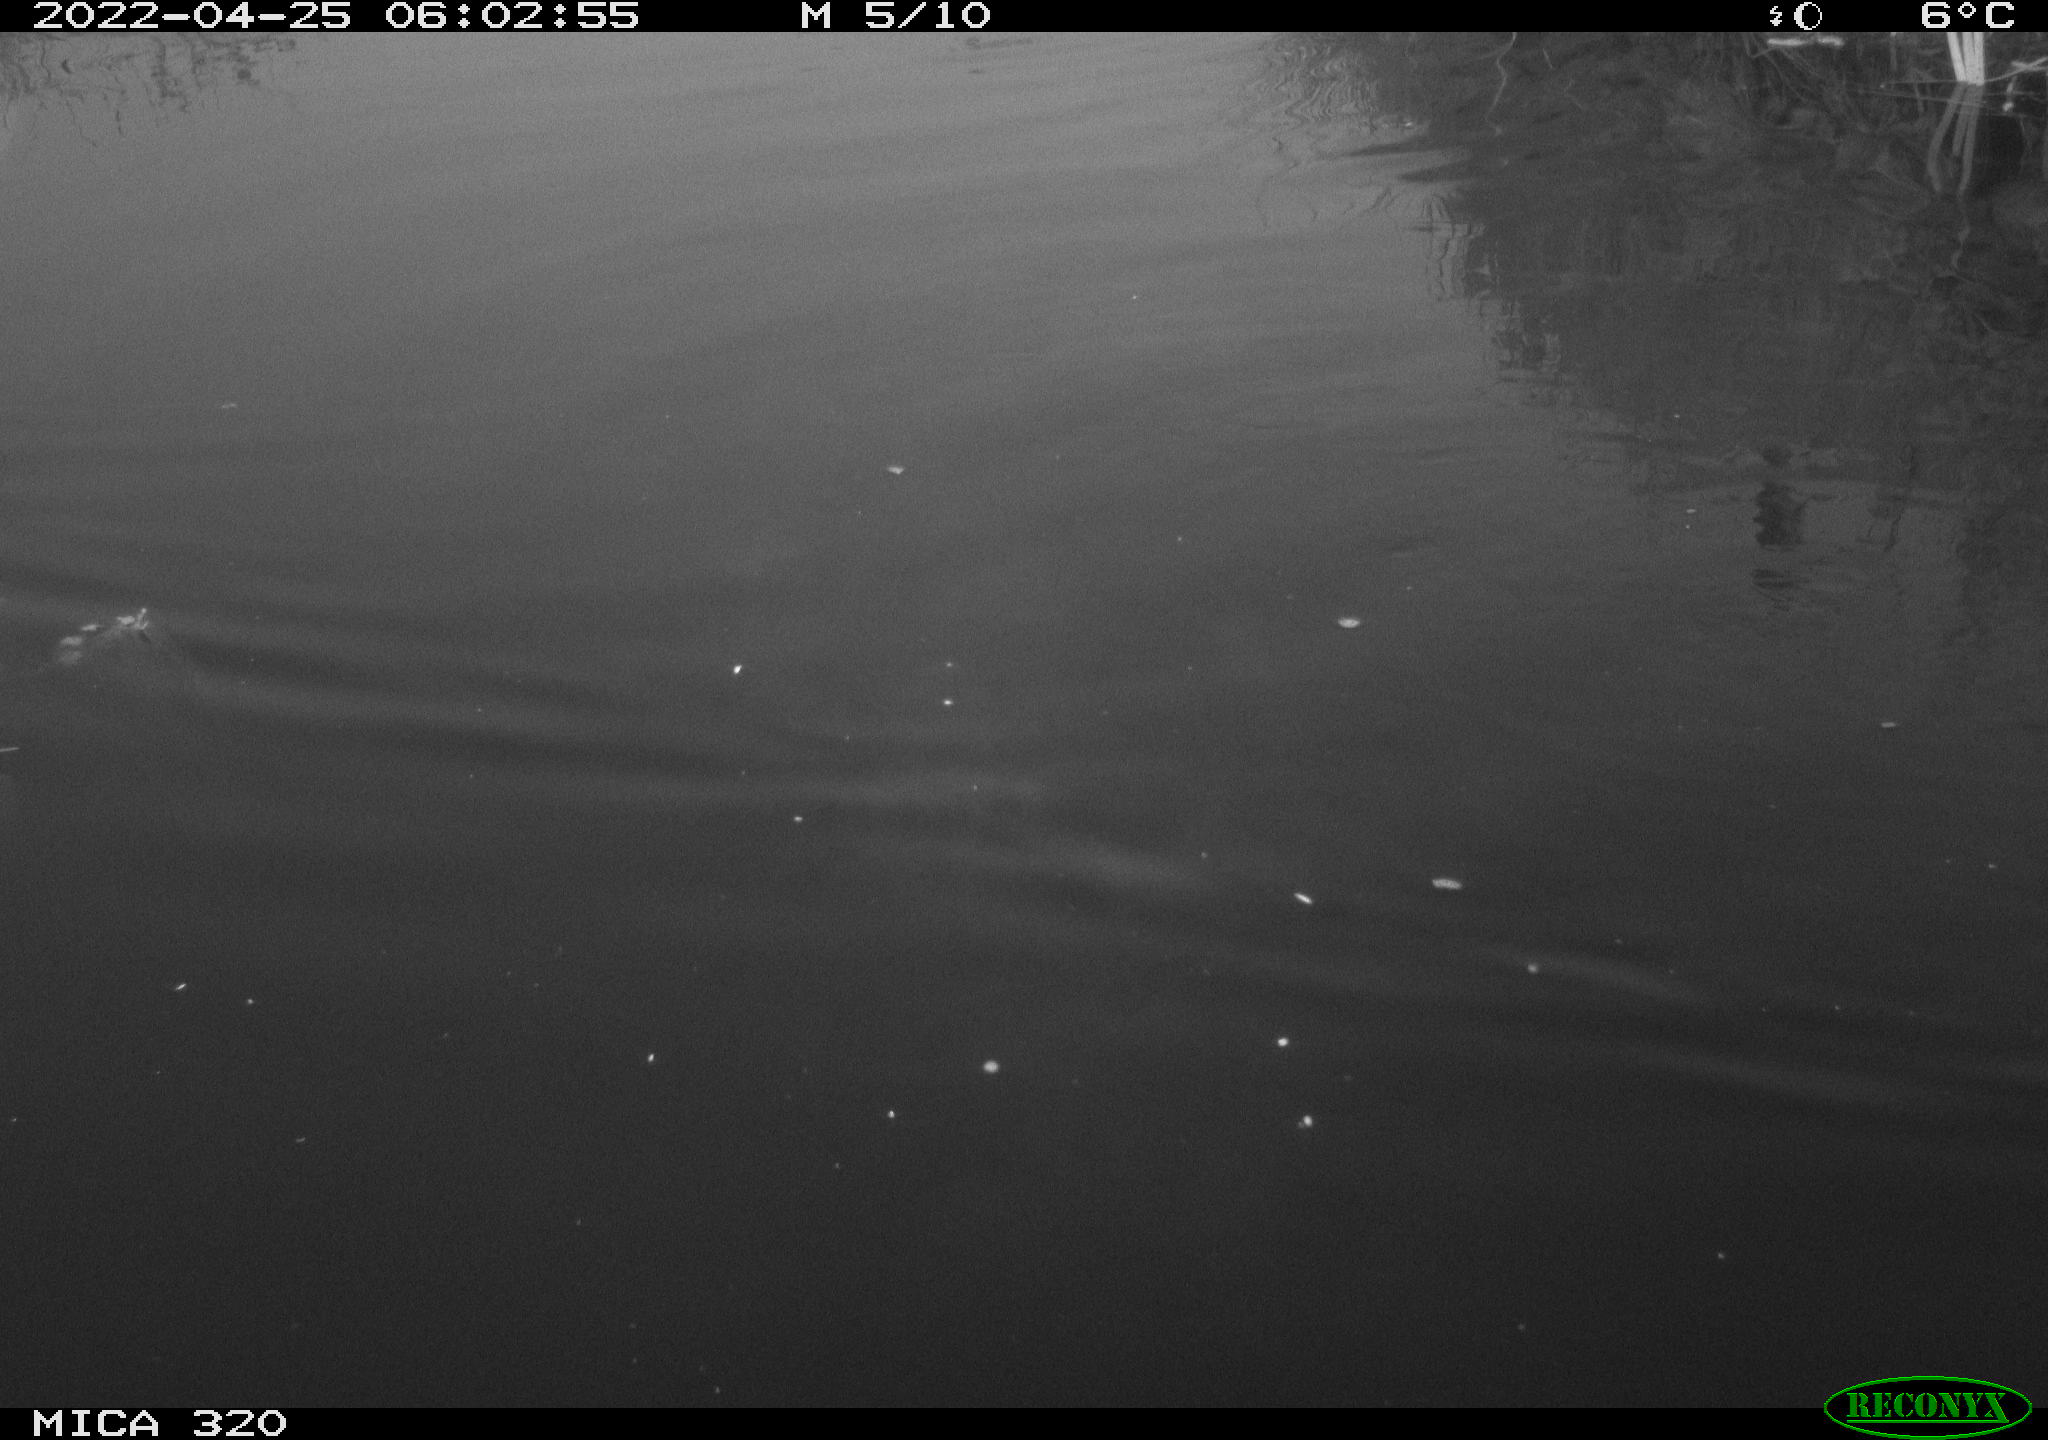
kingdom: Animalia
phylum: Chordata
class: Aves
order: Anseriformes
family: Anatidae
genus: Anas
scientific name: Anas platyrhynchos
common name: Mallard
